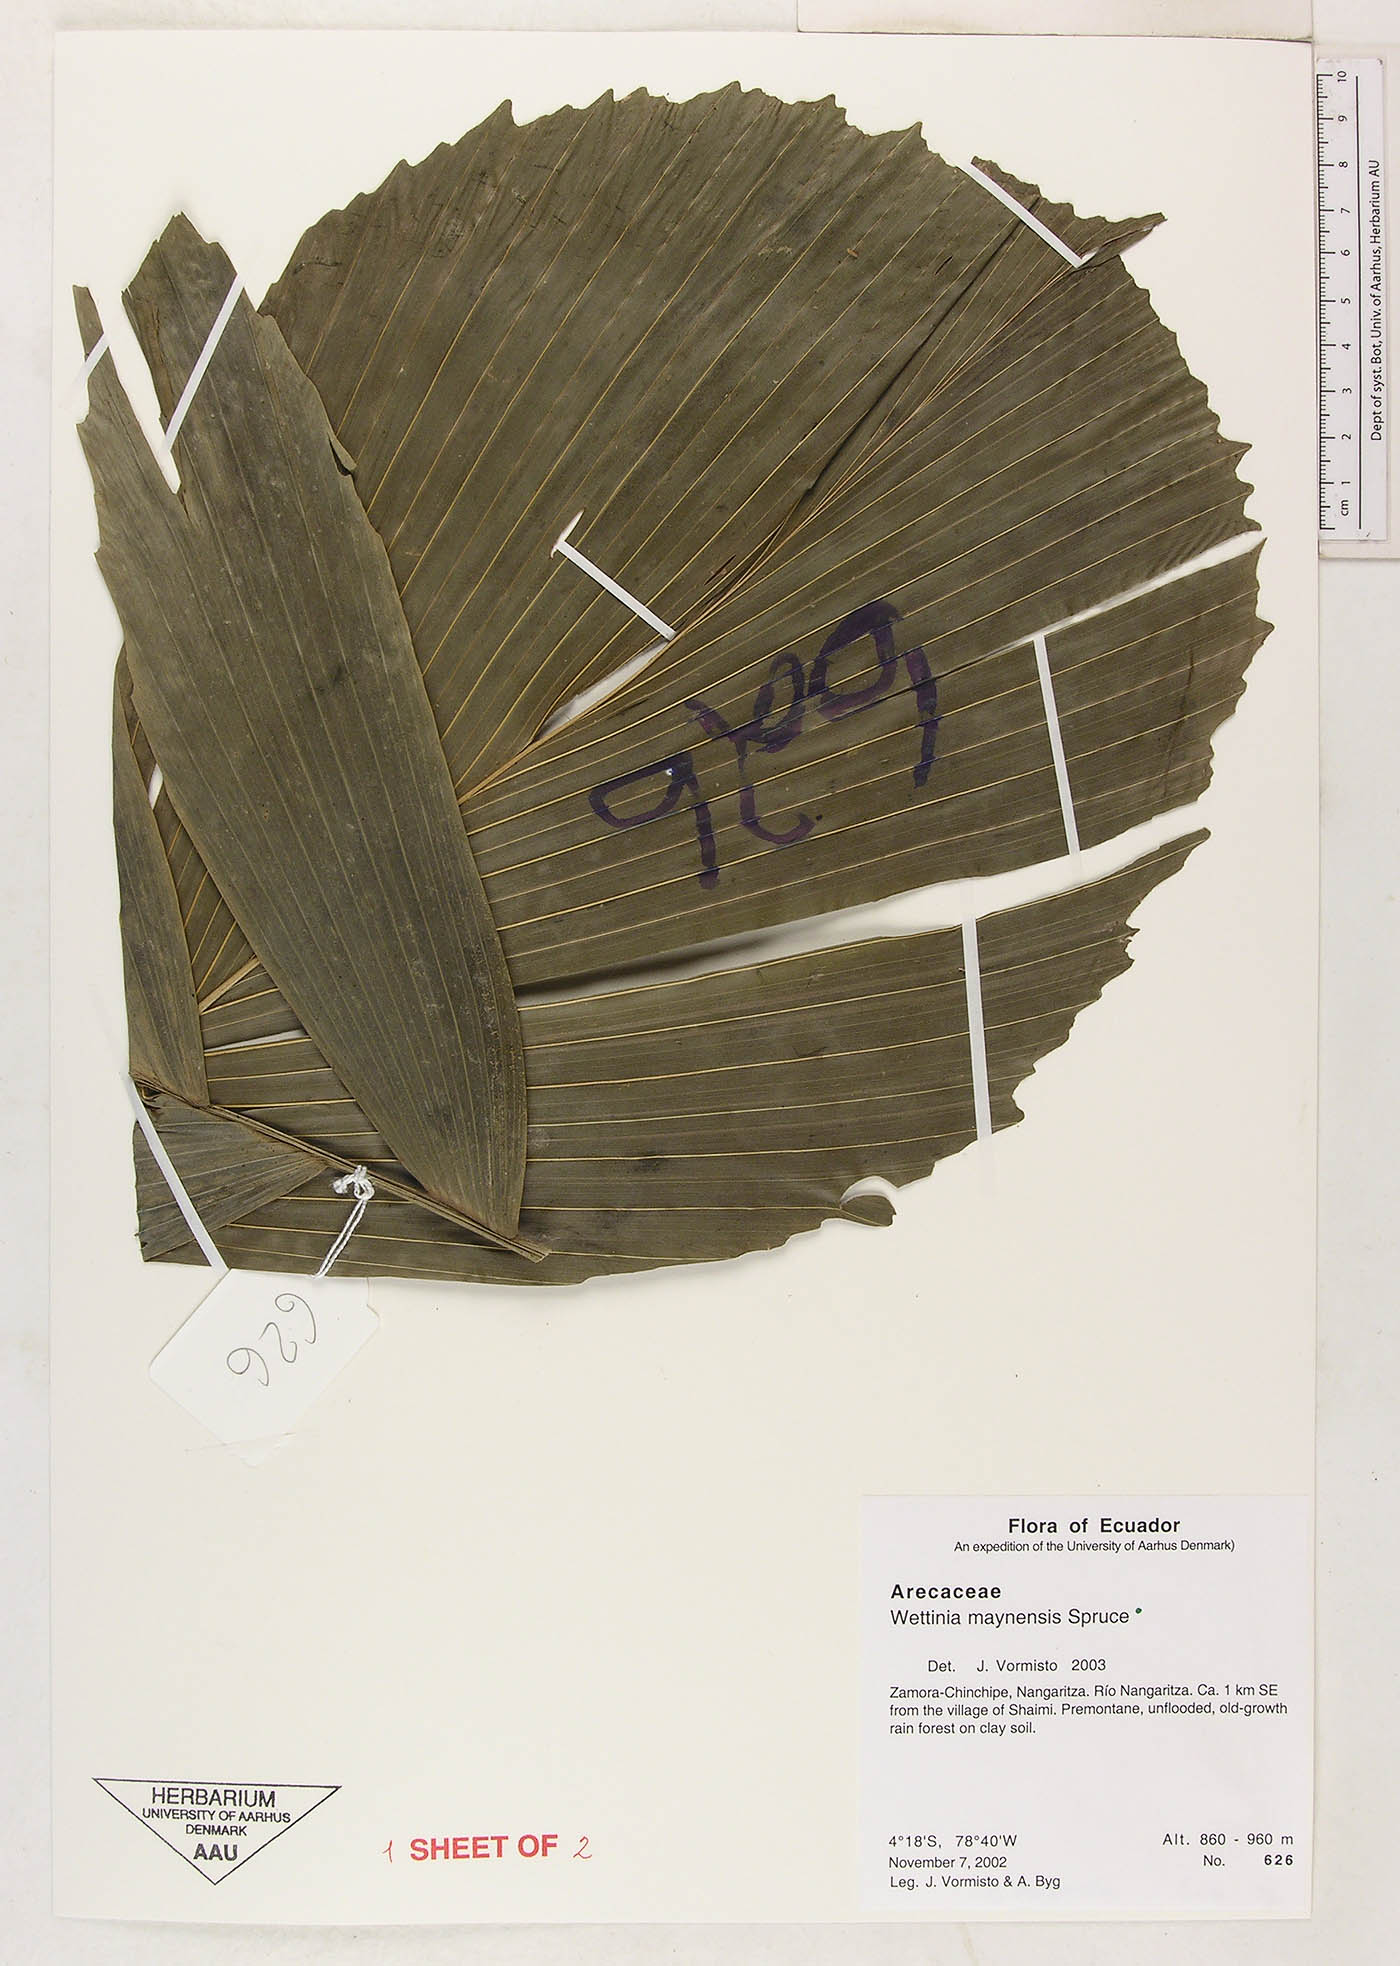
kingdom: Plantae
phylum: Tracheophyta
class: Liliopsida
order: Arecales
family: Arecaceae
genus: Wettinia
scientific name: Wettinia maynensis
